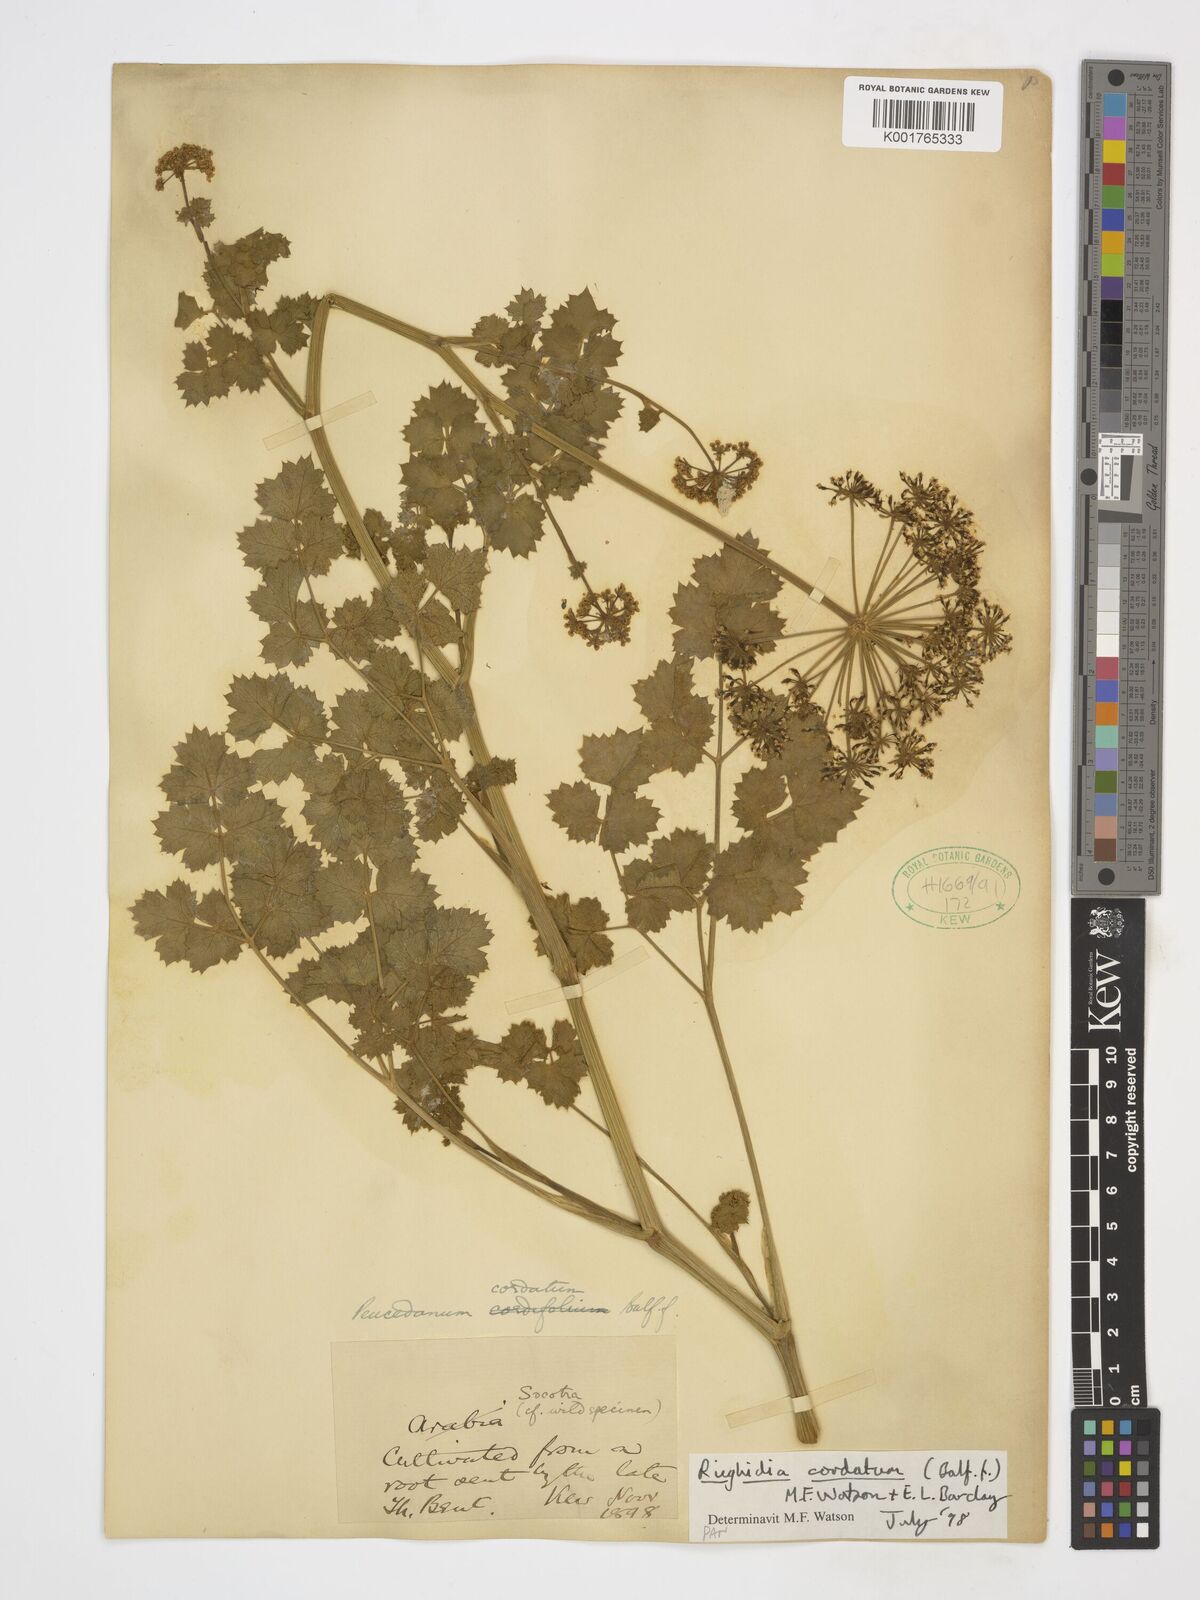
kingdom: Plantae
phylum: Tracheophyta
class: Magnoliopsida
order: Apiales
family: Apiaceae
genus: Rughidia
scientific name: Rughidia cordata
